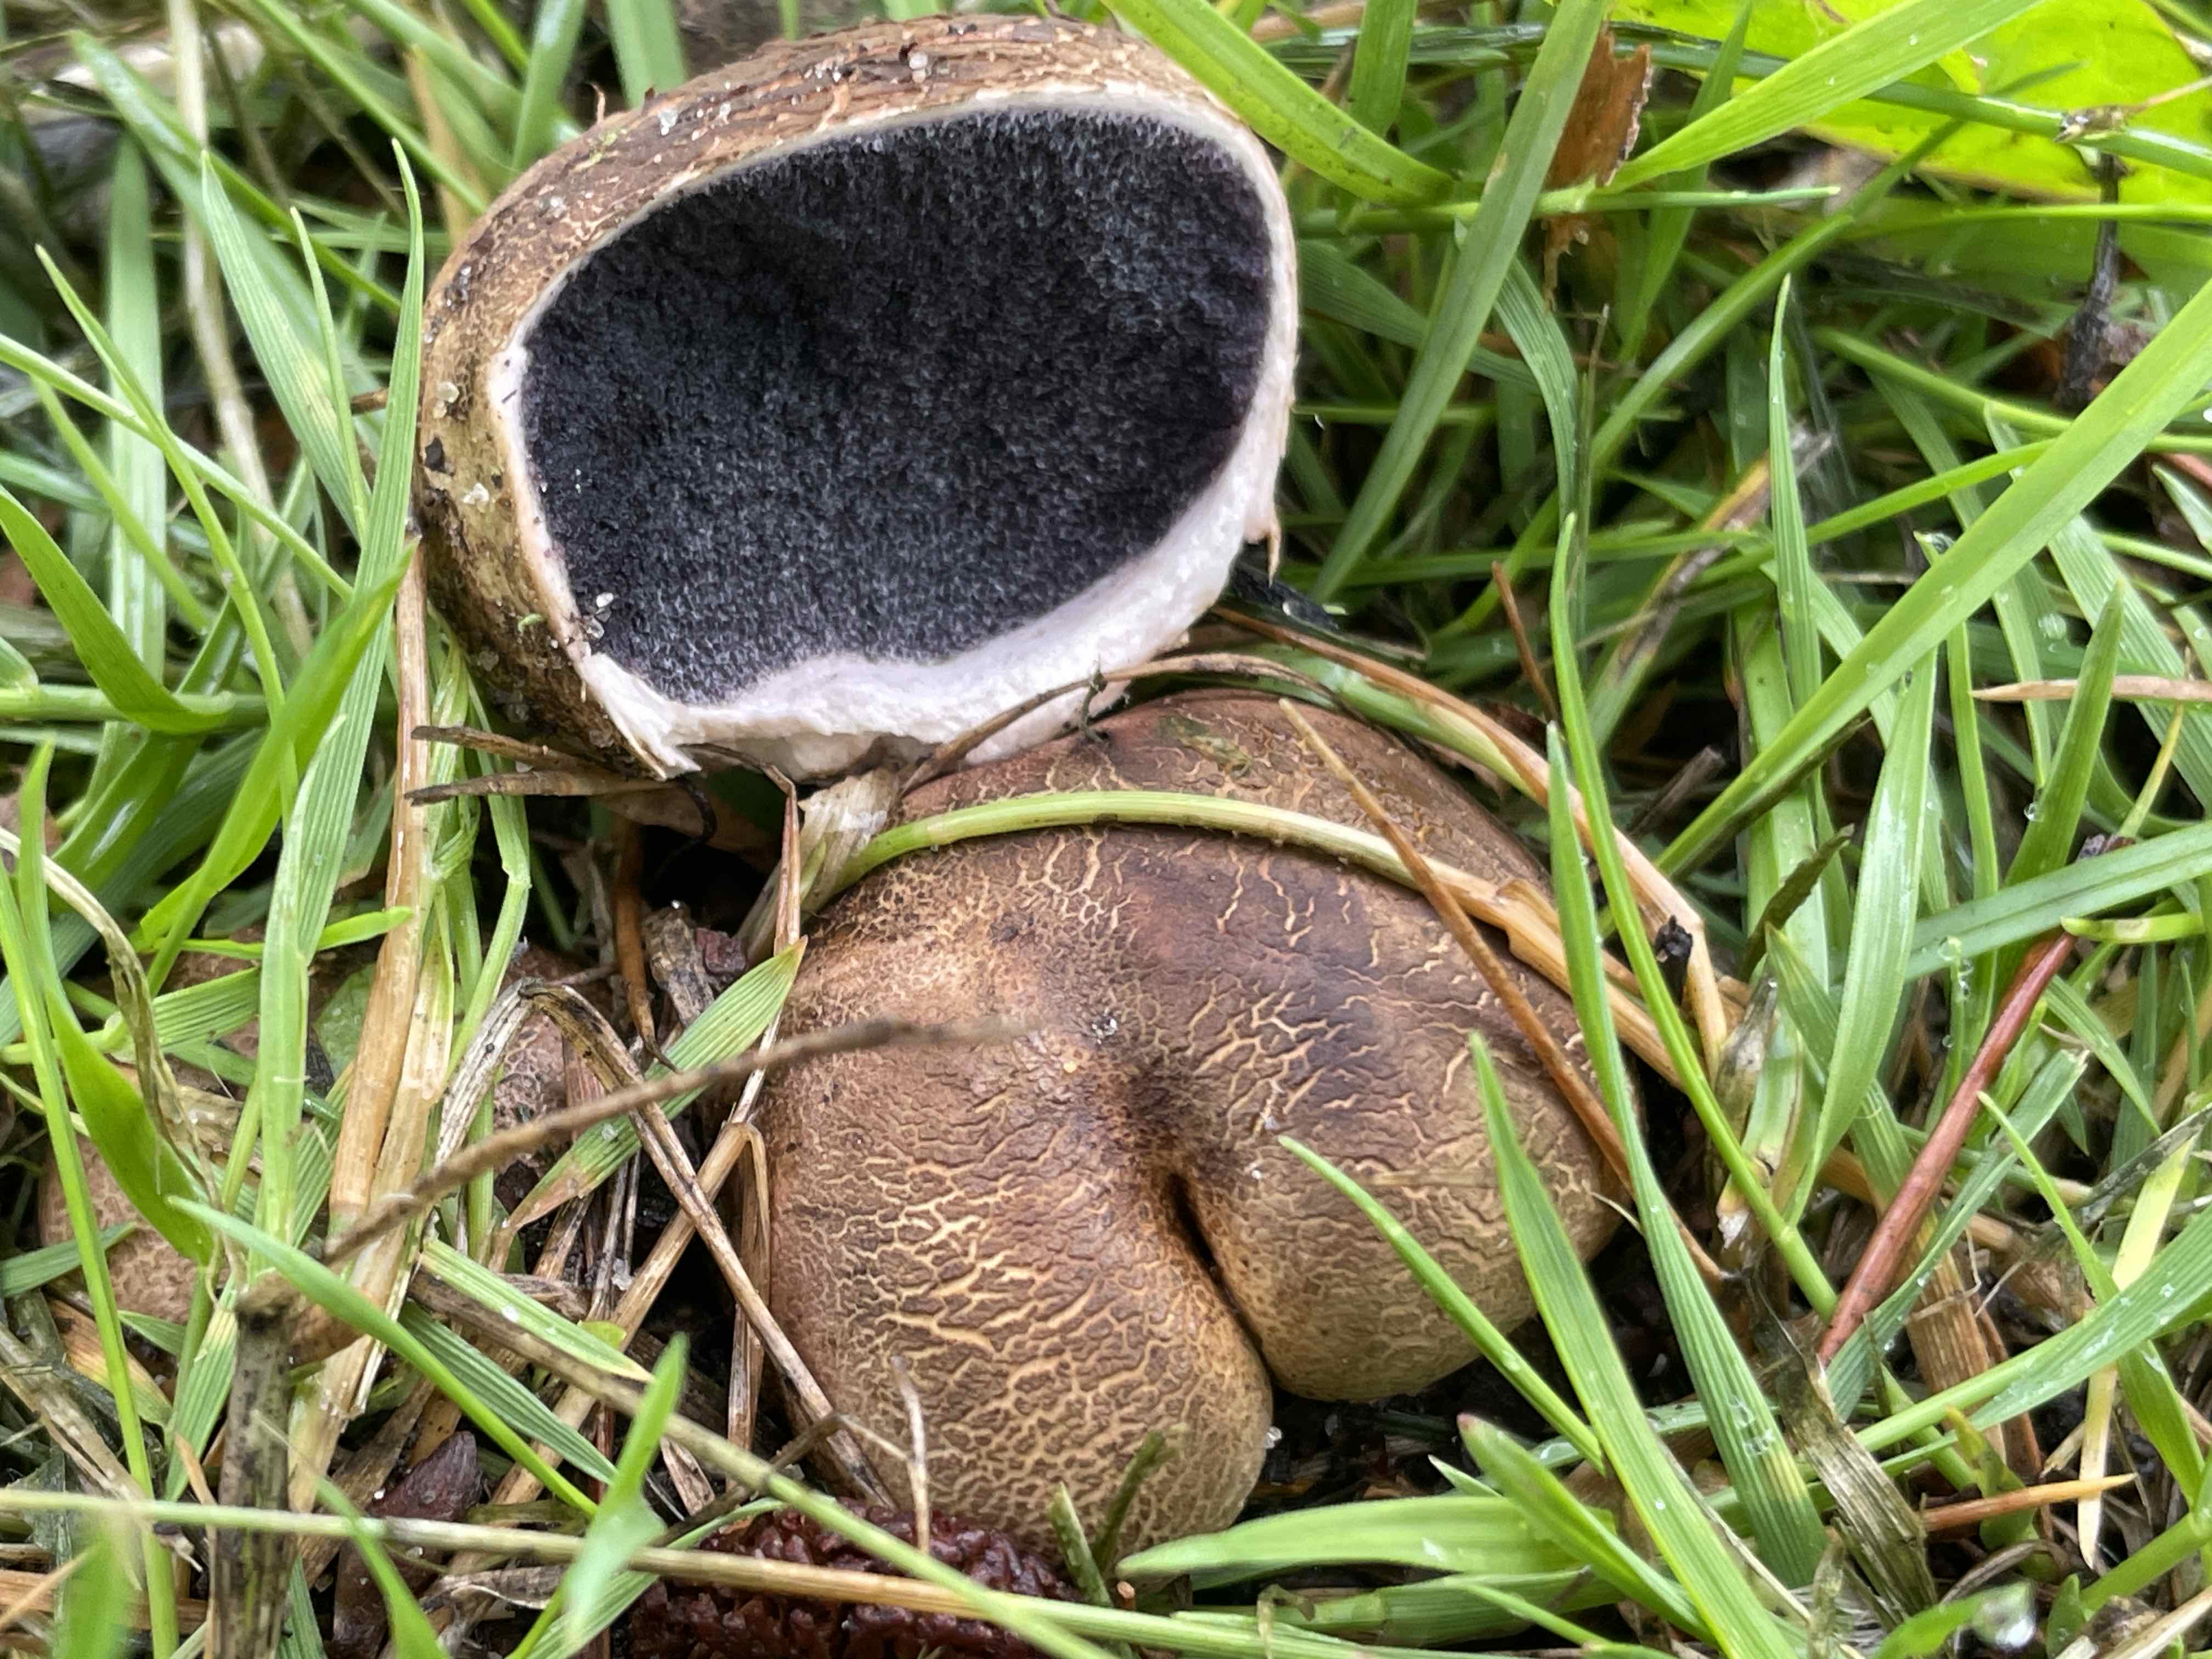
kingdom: Fungi
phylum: Basidiomycota
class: Agaricomycetes
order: Boletales
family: Sclerodermataceae
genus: Scleroderma
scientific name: Scleroderma cepa
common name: rødbrun bruskbold
